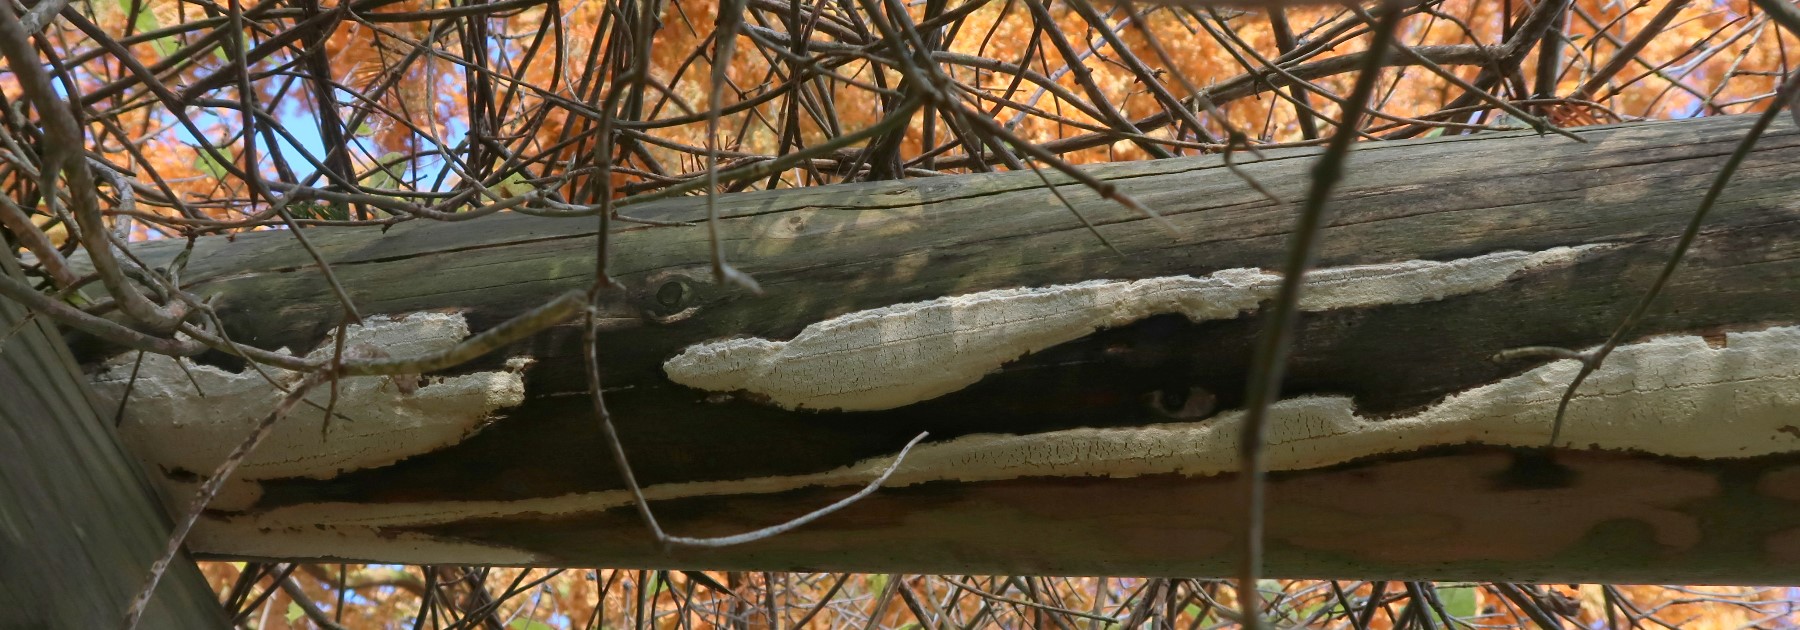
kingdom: Fungi
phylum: Basidiomycota
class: Agaricomycetes
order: Polyporales
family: Gelatoporiaceae
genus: Cinereomyces
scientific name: Cinereomyces lindbladii
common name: almindelig gråporesvamp
